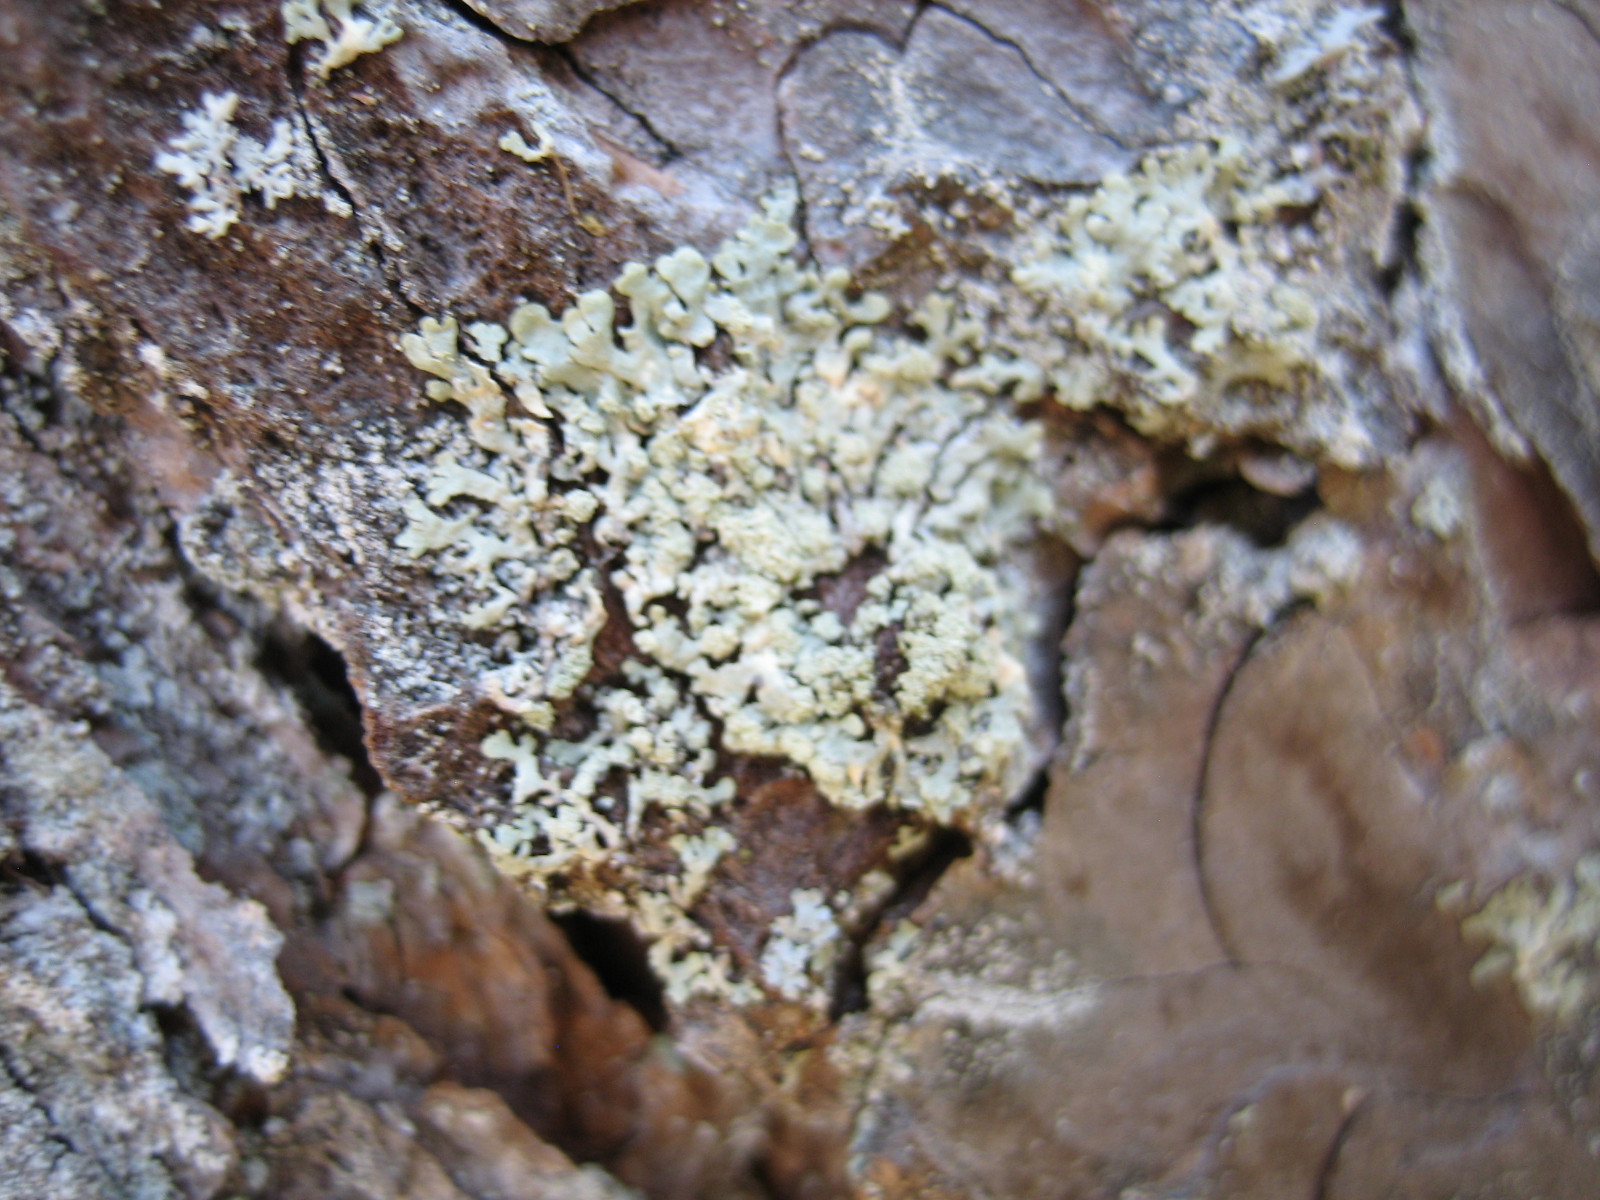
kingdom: Fungi
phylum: Ascomycota
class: Lecanoromycetes
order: Lecanorales
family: Parmeliaceae
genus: Parmeliopsis
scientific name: Parmeliopsis ambigua
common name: gul stolpelav
